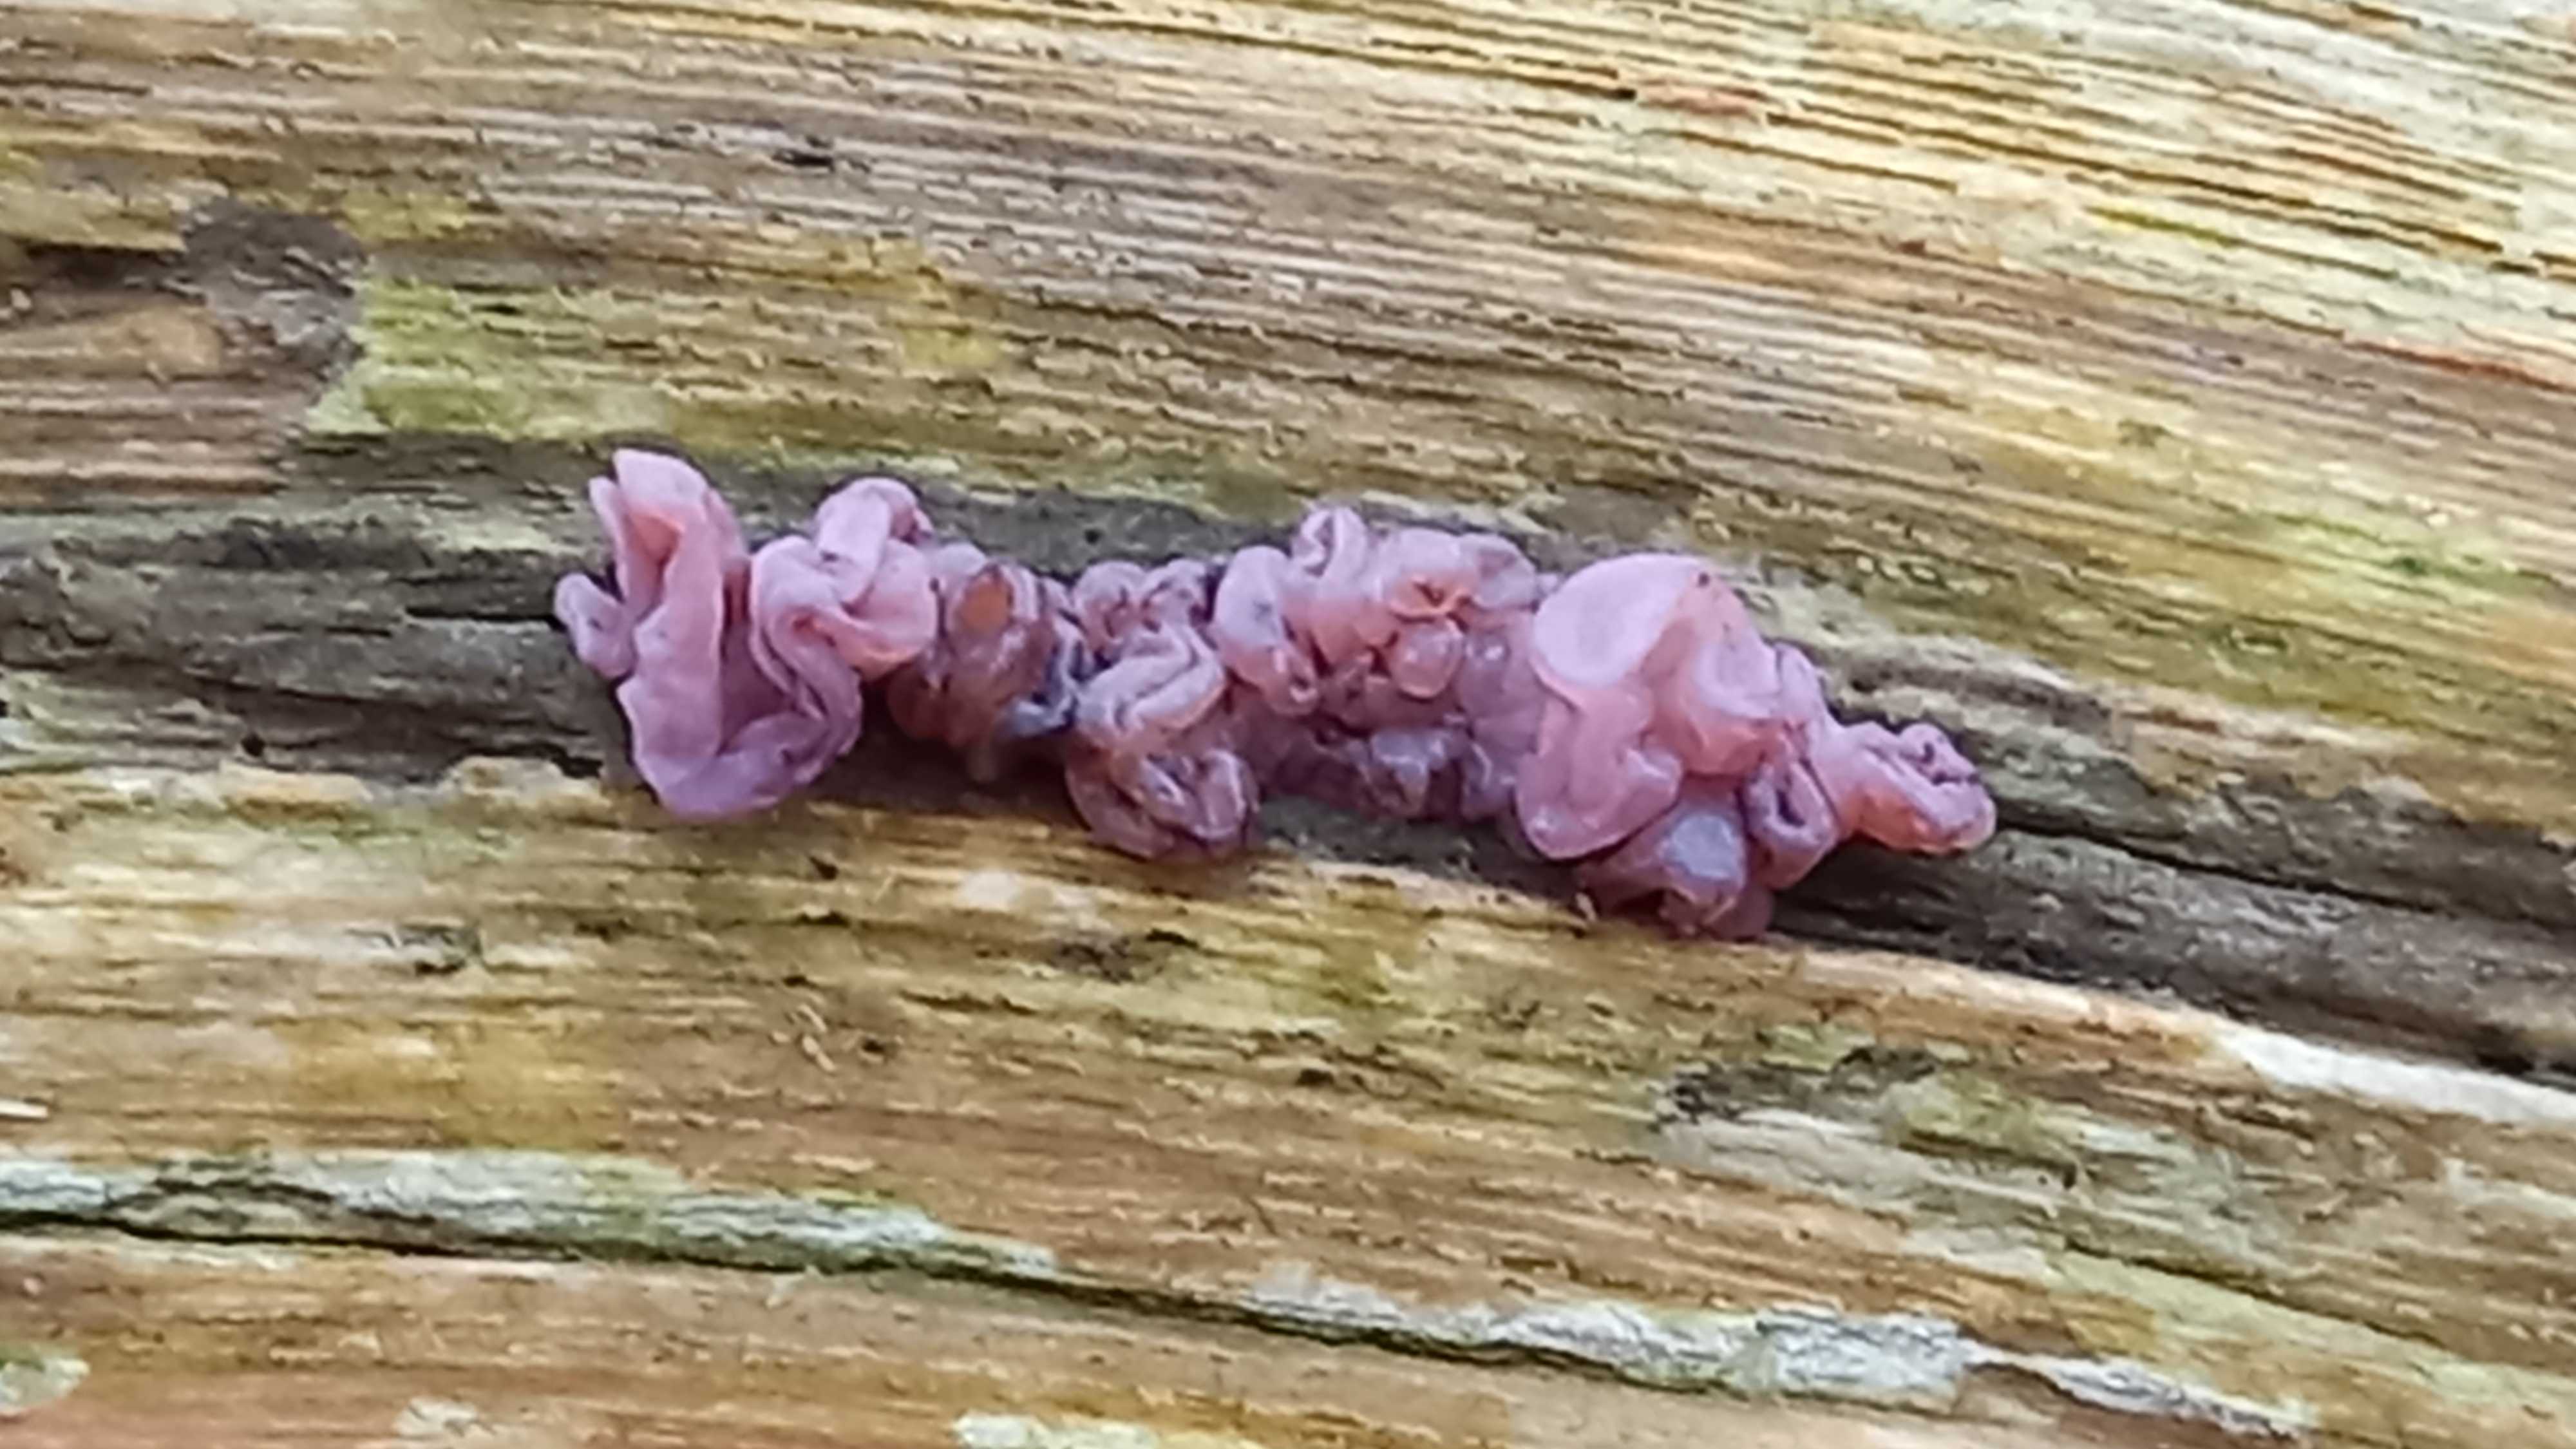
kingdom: Fungi
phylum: Ascomycota
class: Leotiomycetes
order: Helotiales
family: Gelatinodiscaceae
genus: Ascocoryne
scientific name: Ascocoryne sarcoides
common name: rødlilla sejskive
